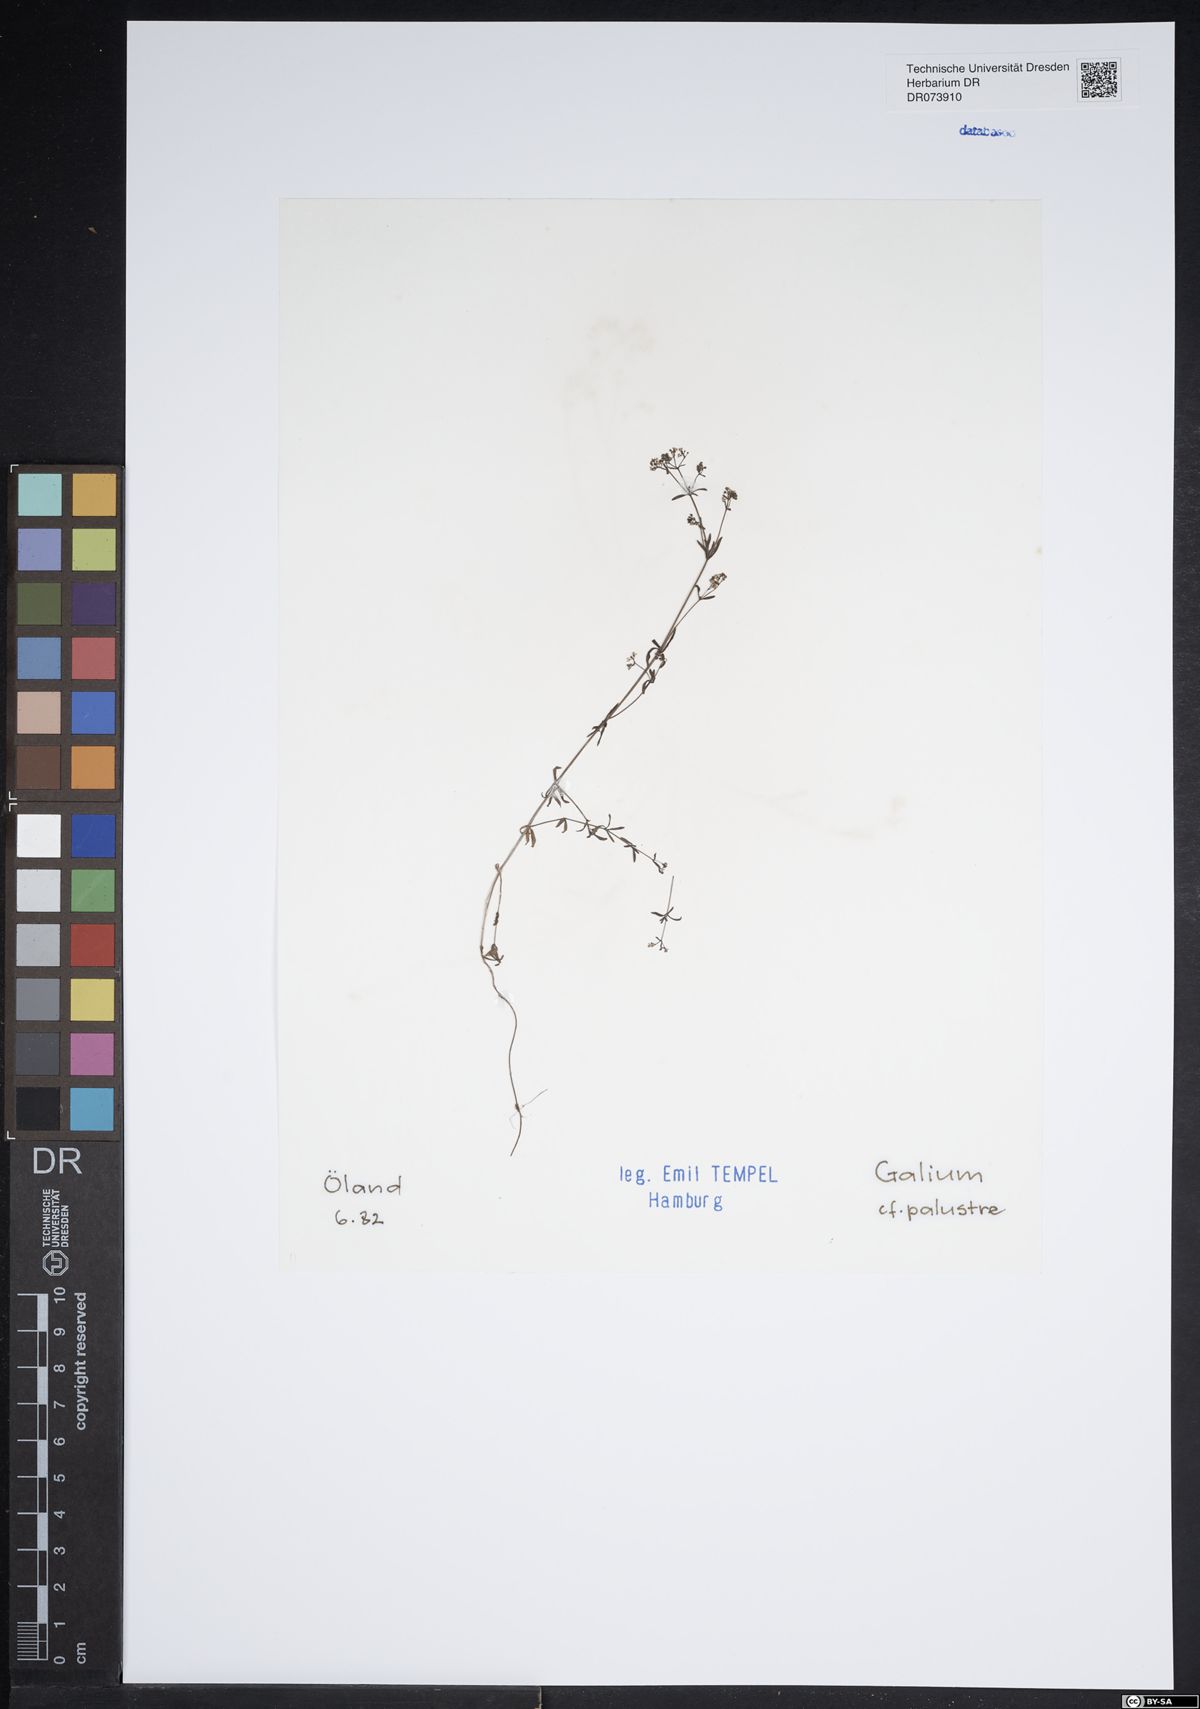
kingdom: Plantae
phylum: Tracheophyta
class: Magnoliopsida
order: Gentianales
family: Rubiaceae
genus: Galium
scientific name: Galium palustre
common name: Common marsh-bedstraw
